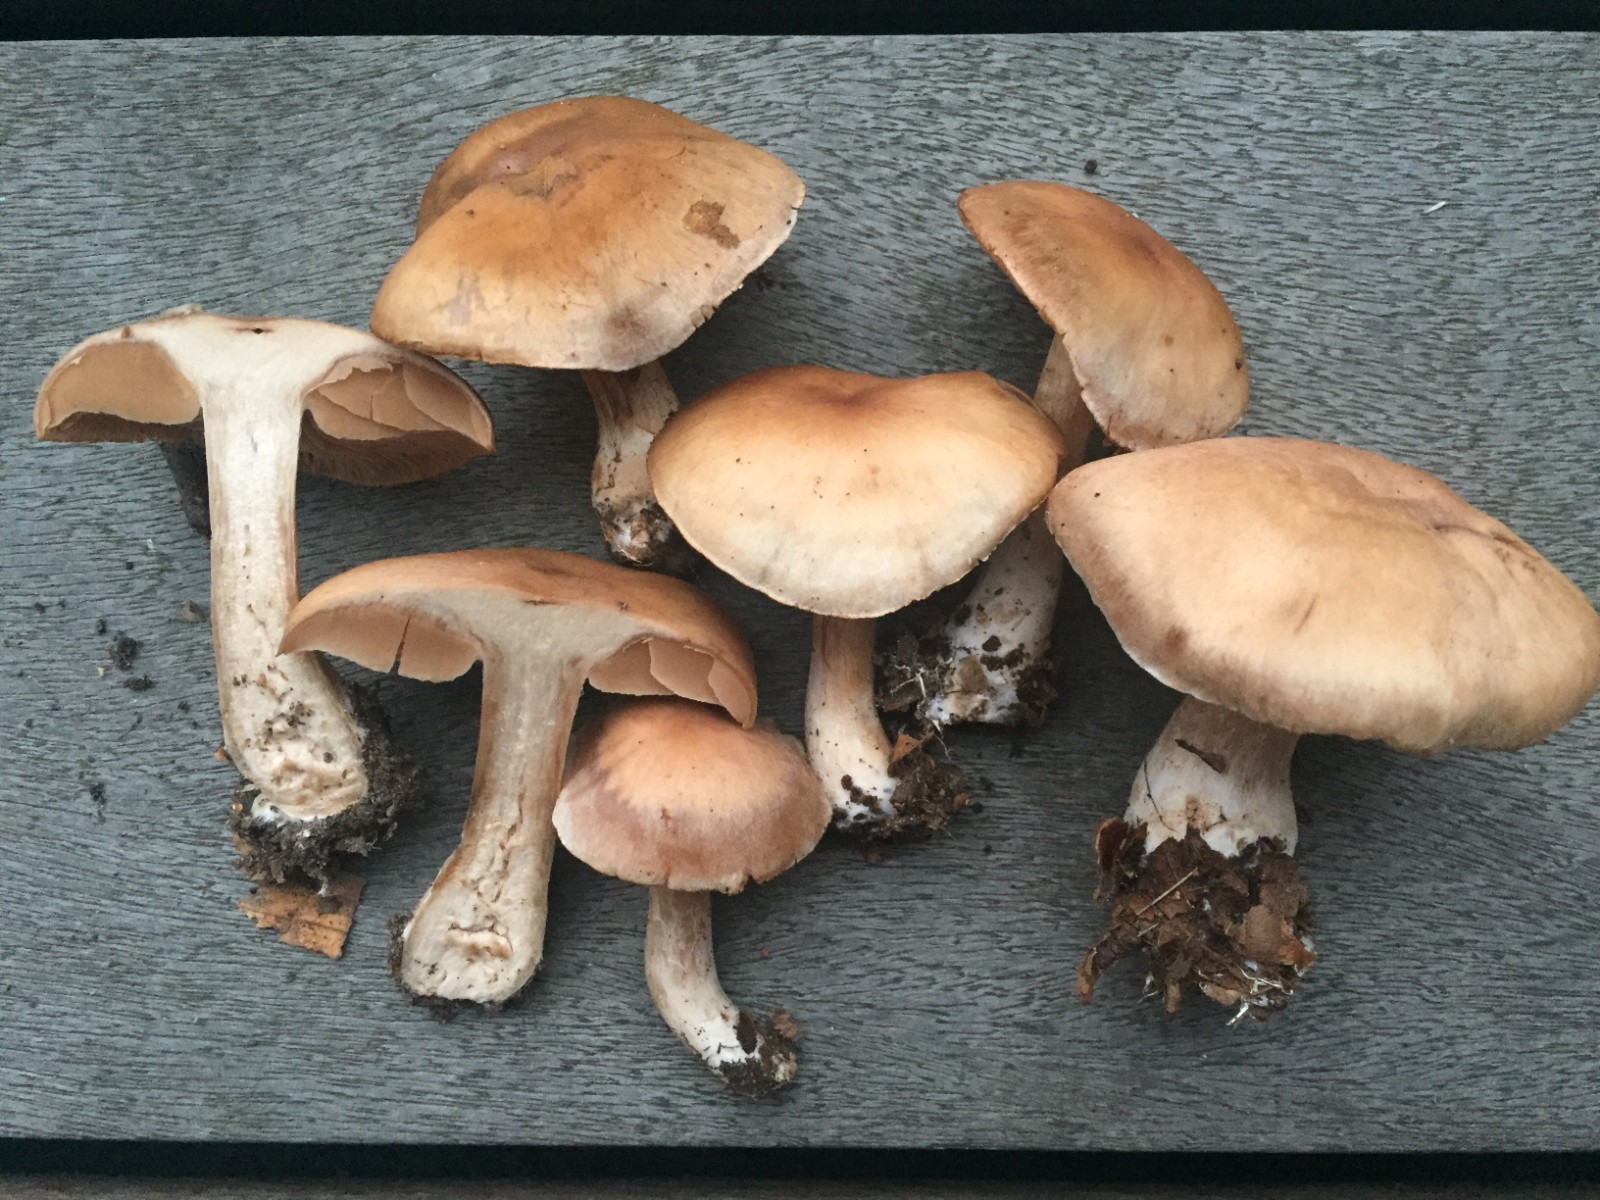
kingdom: Fungi
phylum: Basidiomycota
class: Agaricomycetes
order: Agaricales
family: Cortinariaceae
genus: Cortinarius
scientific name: Cortinarius suboxytoneus
